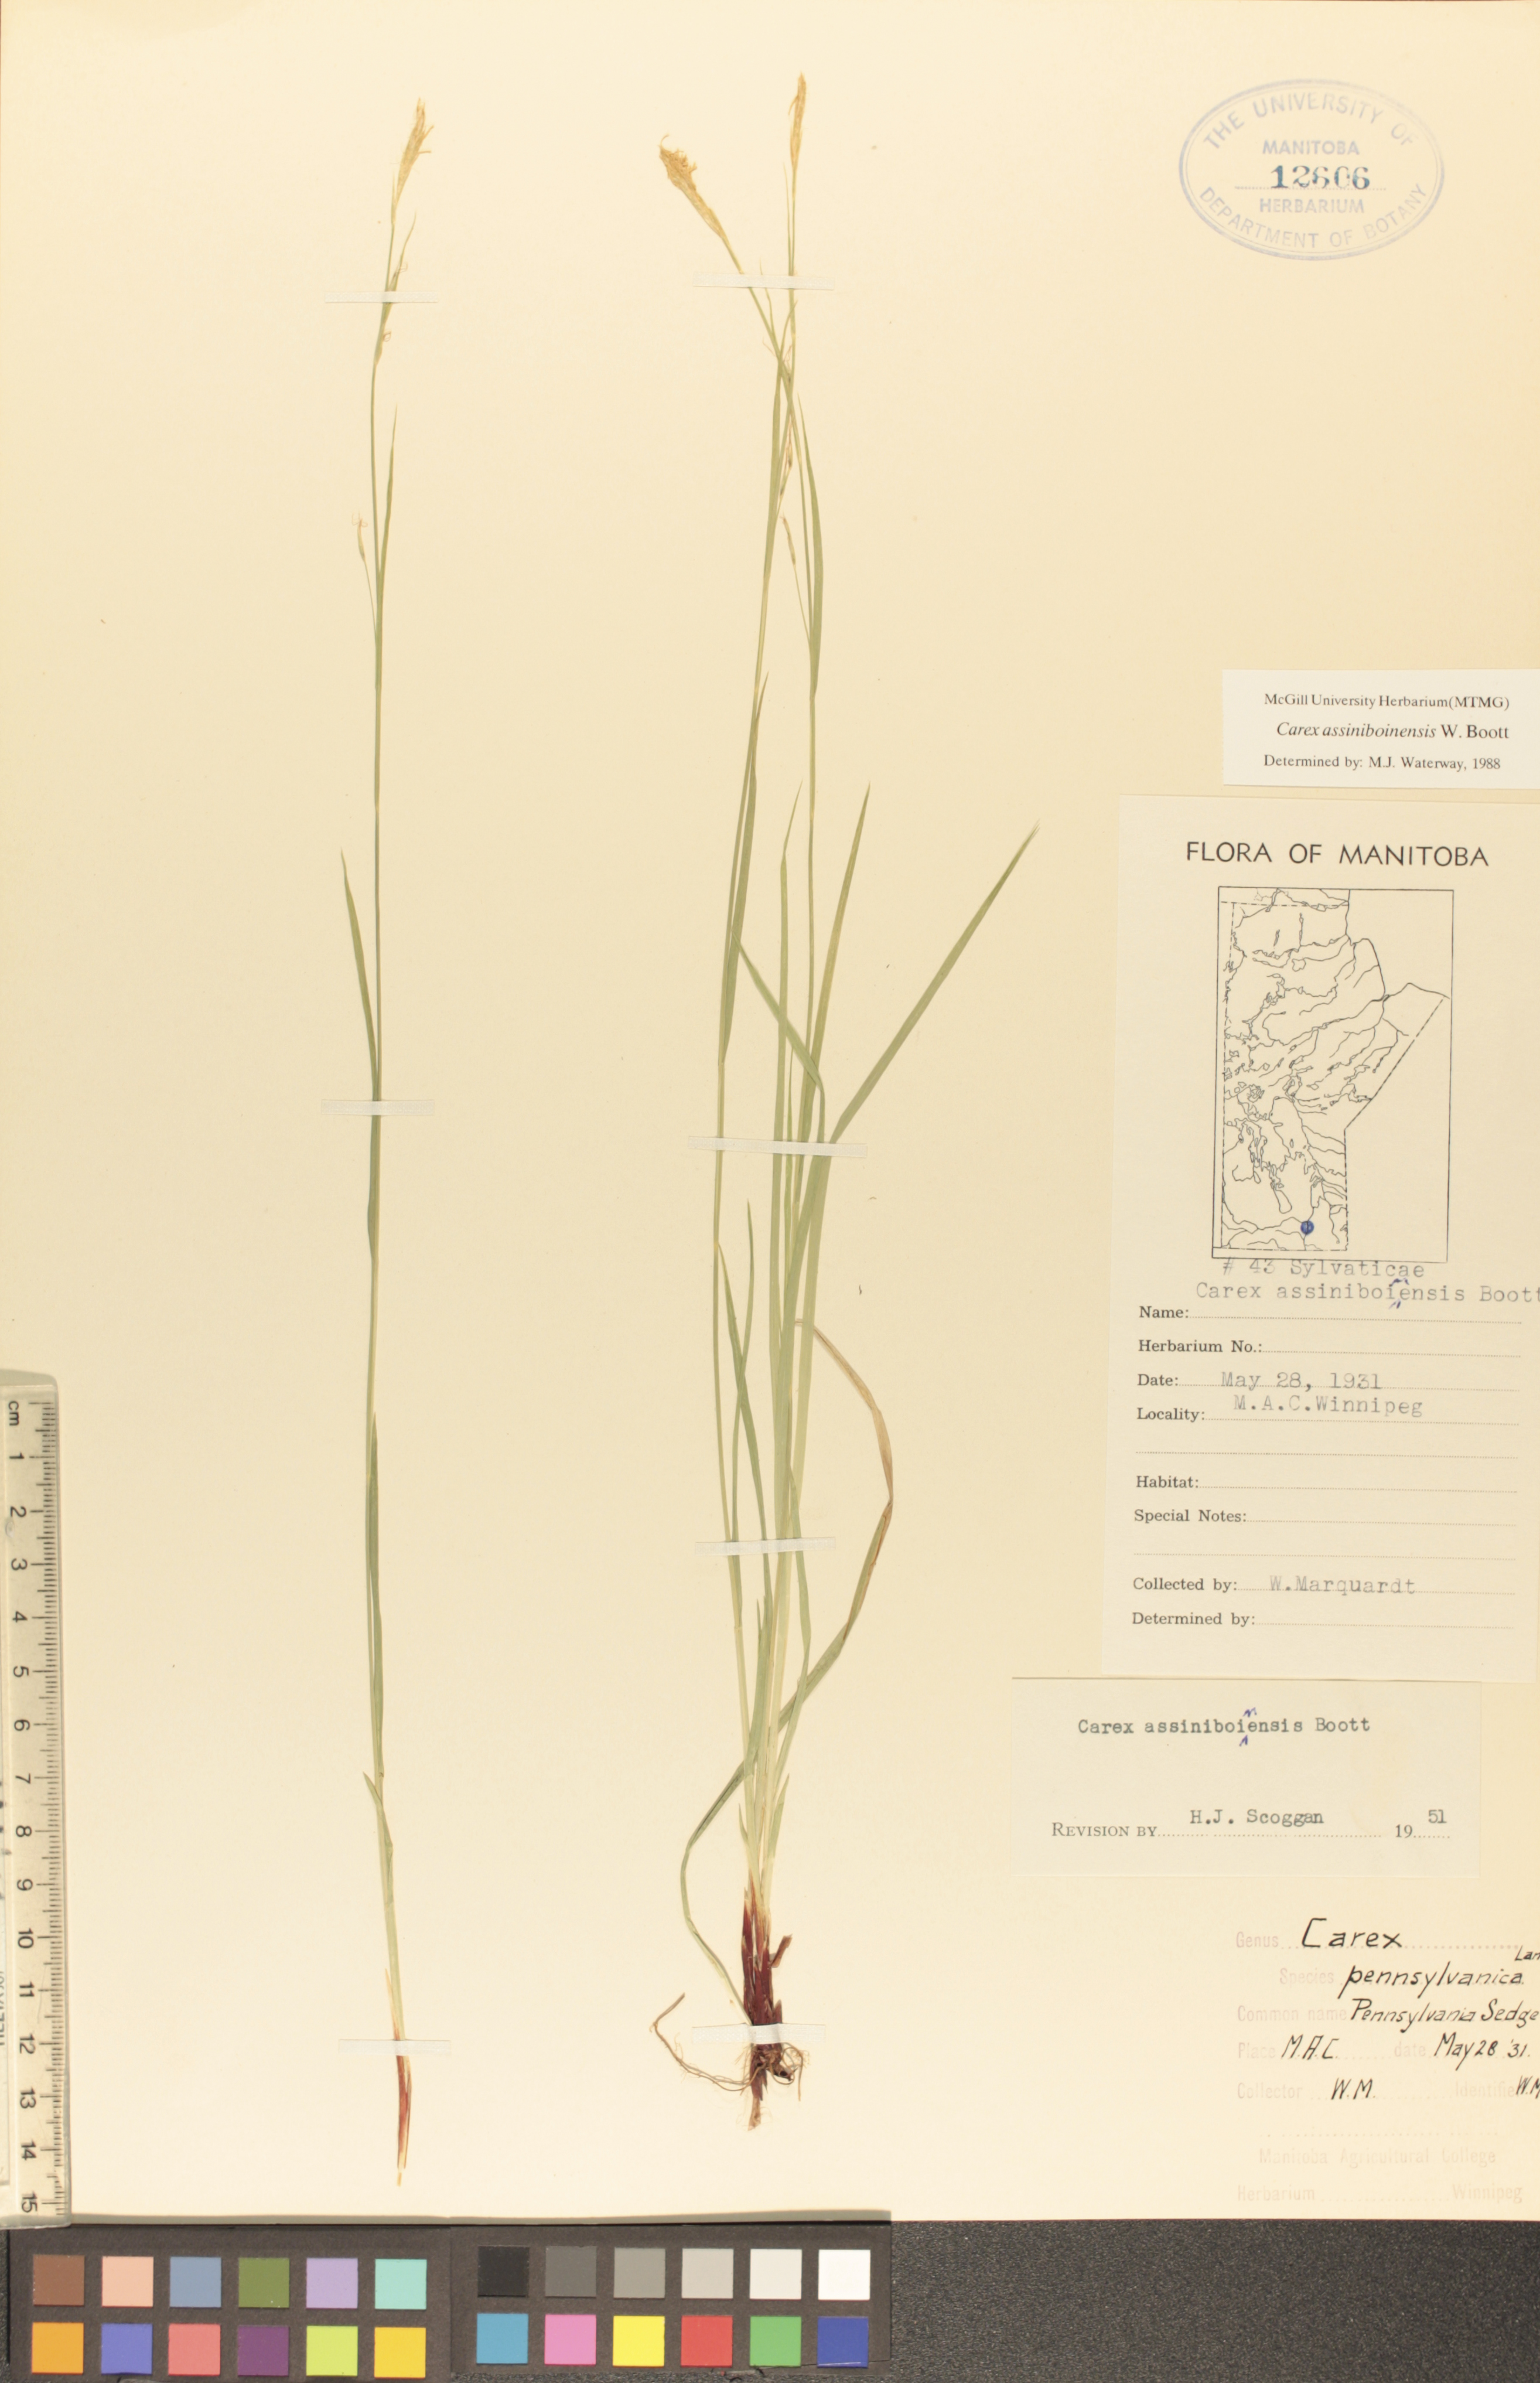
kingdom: Plantae
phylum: Tracheophyta
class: Liliopsida
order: Poales
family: Cyperaceae
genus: Carex
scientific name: Carex assiniboinensis
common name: Assiniboia sedge
